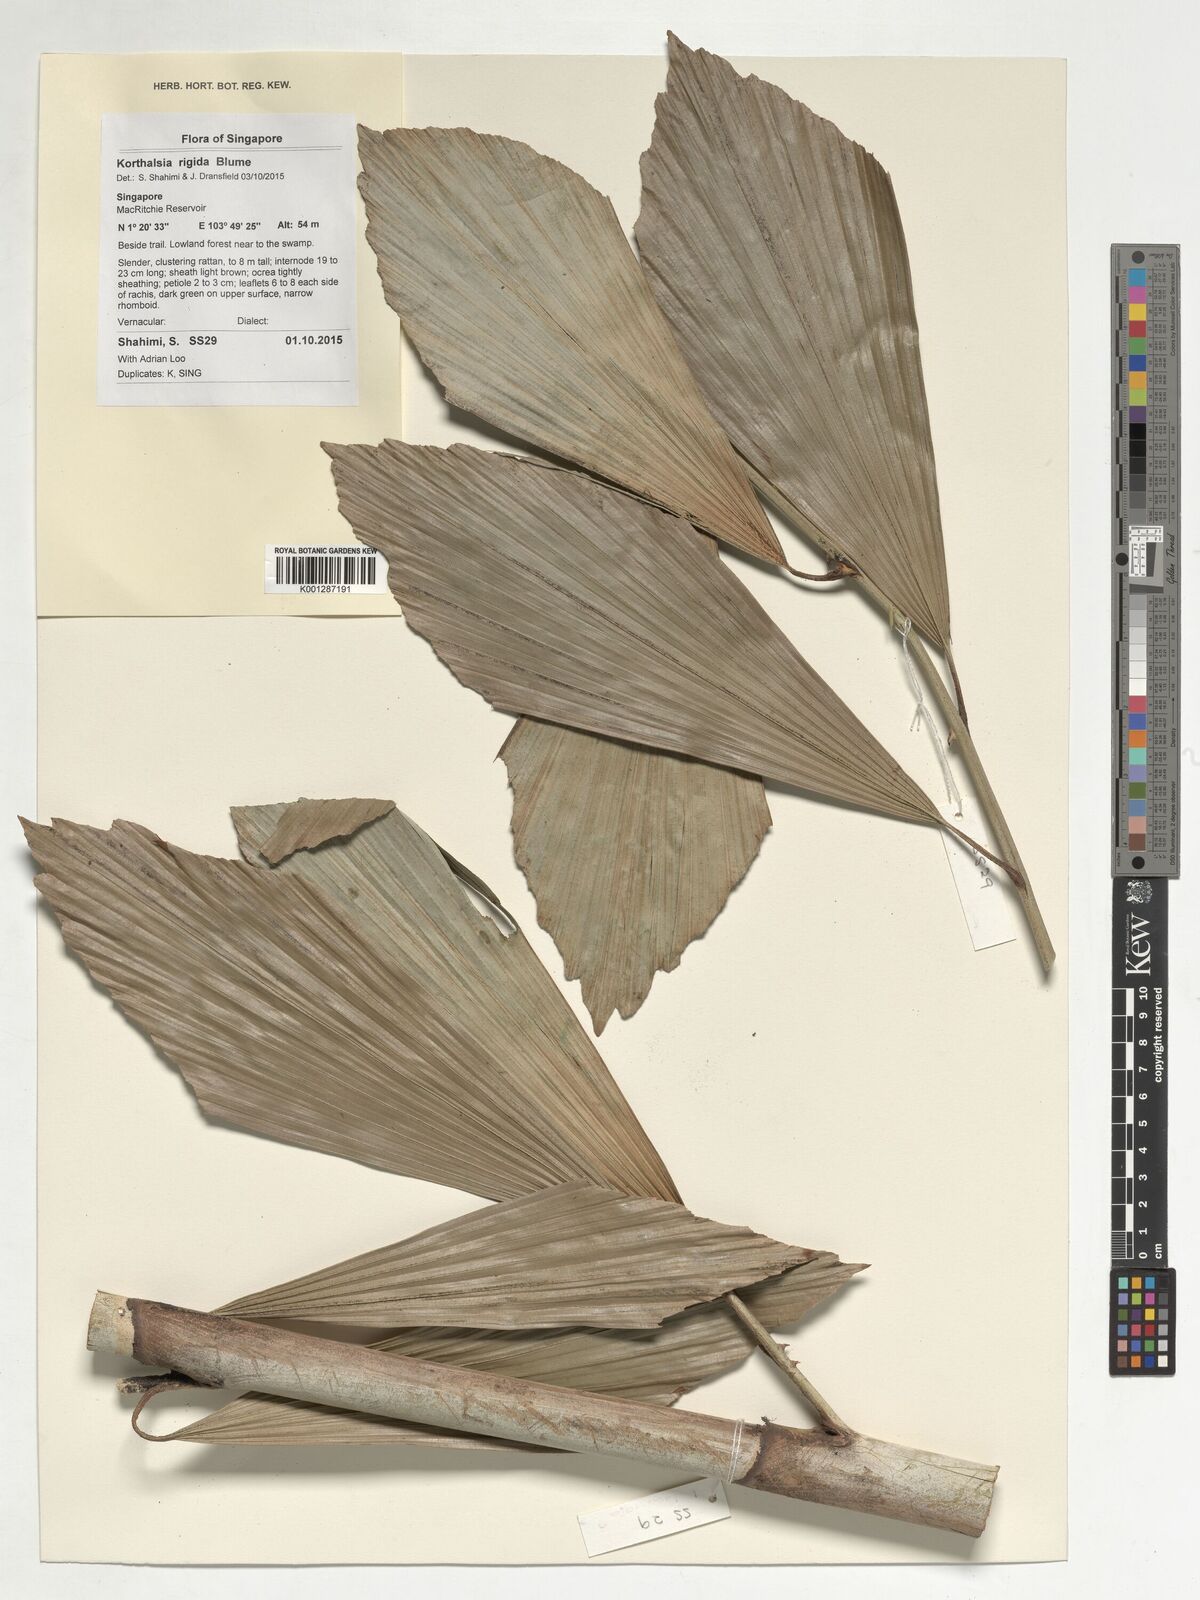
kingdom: Plantae
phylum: Tracheophyta
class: Liliopsida
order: Arecales
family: Arecaceae
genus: Korthalsia
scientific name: Korthalsia rigida
